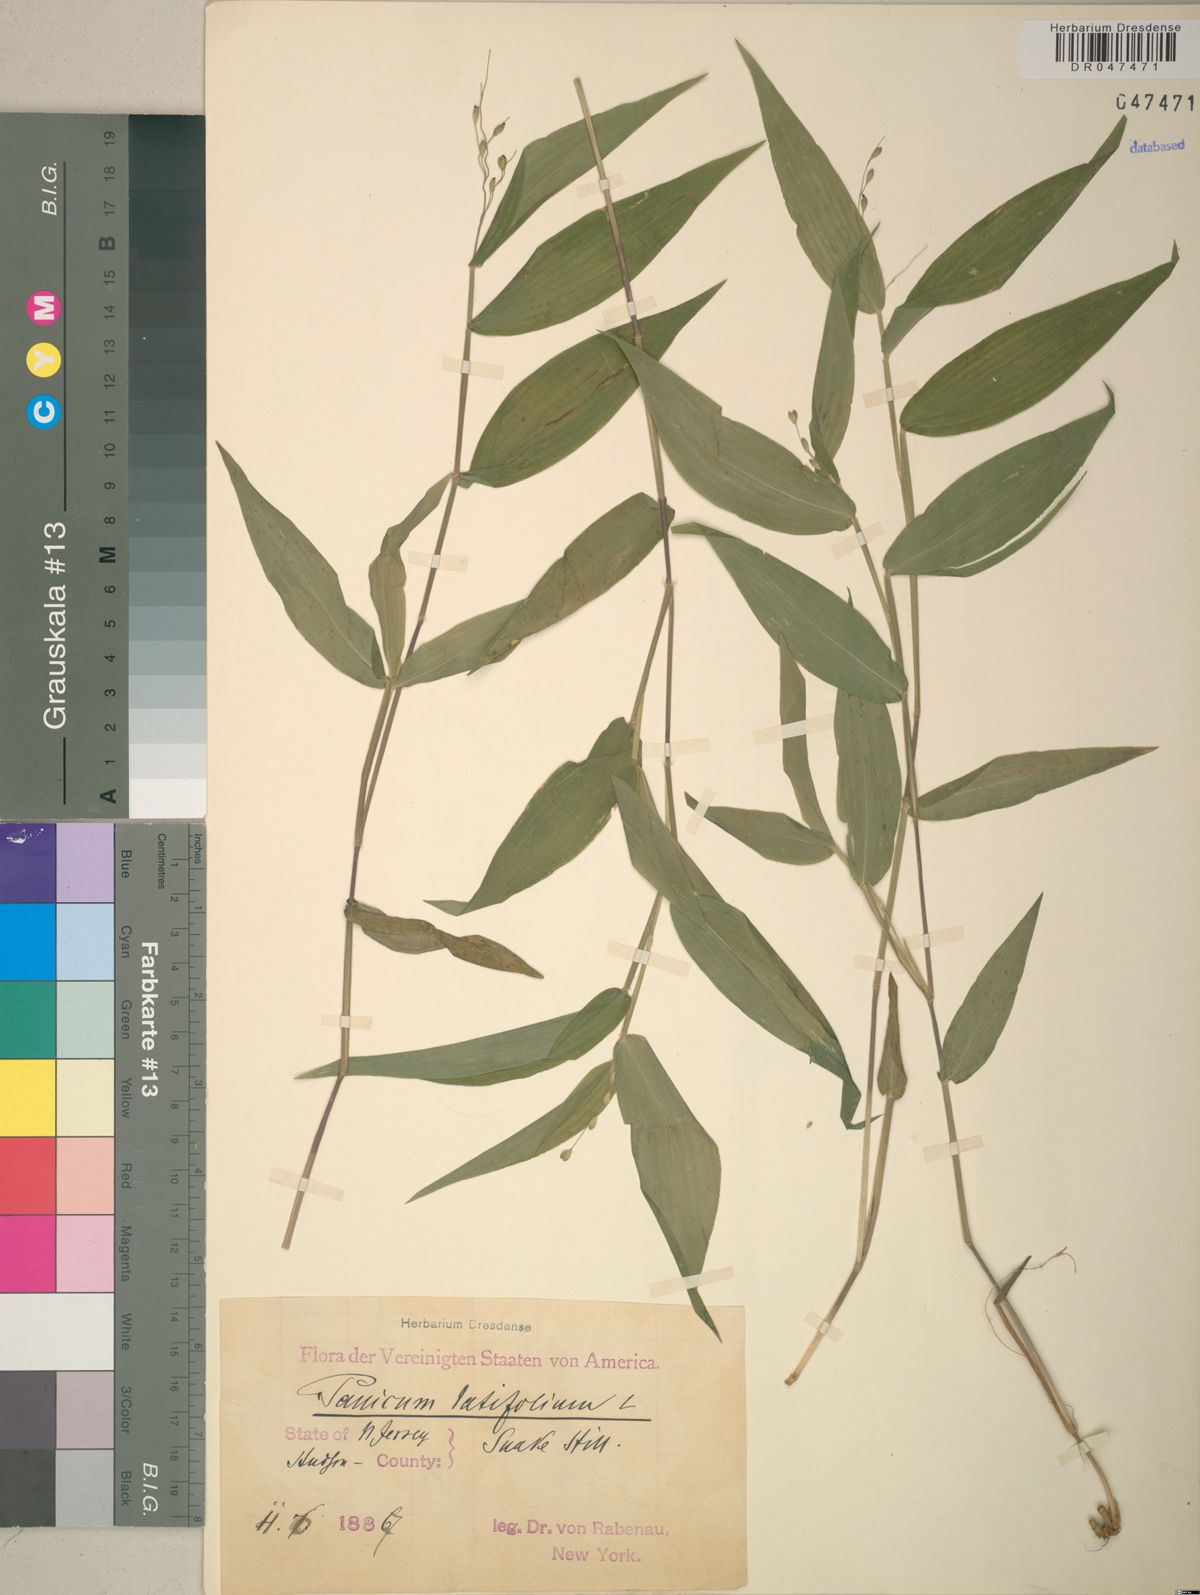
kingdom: Plantae
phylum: Tracheophyta
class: Liliopsida
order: Poales
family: Poaceae
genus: Dichanthelium
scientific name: Dichanthelium latifolium
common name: Broad-leaved panicgrass
